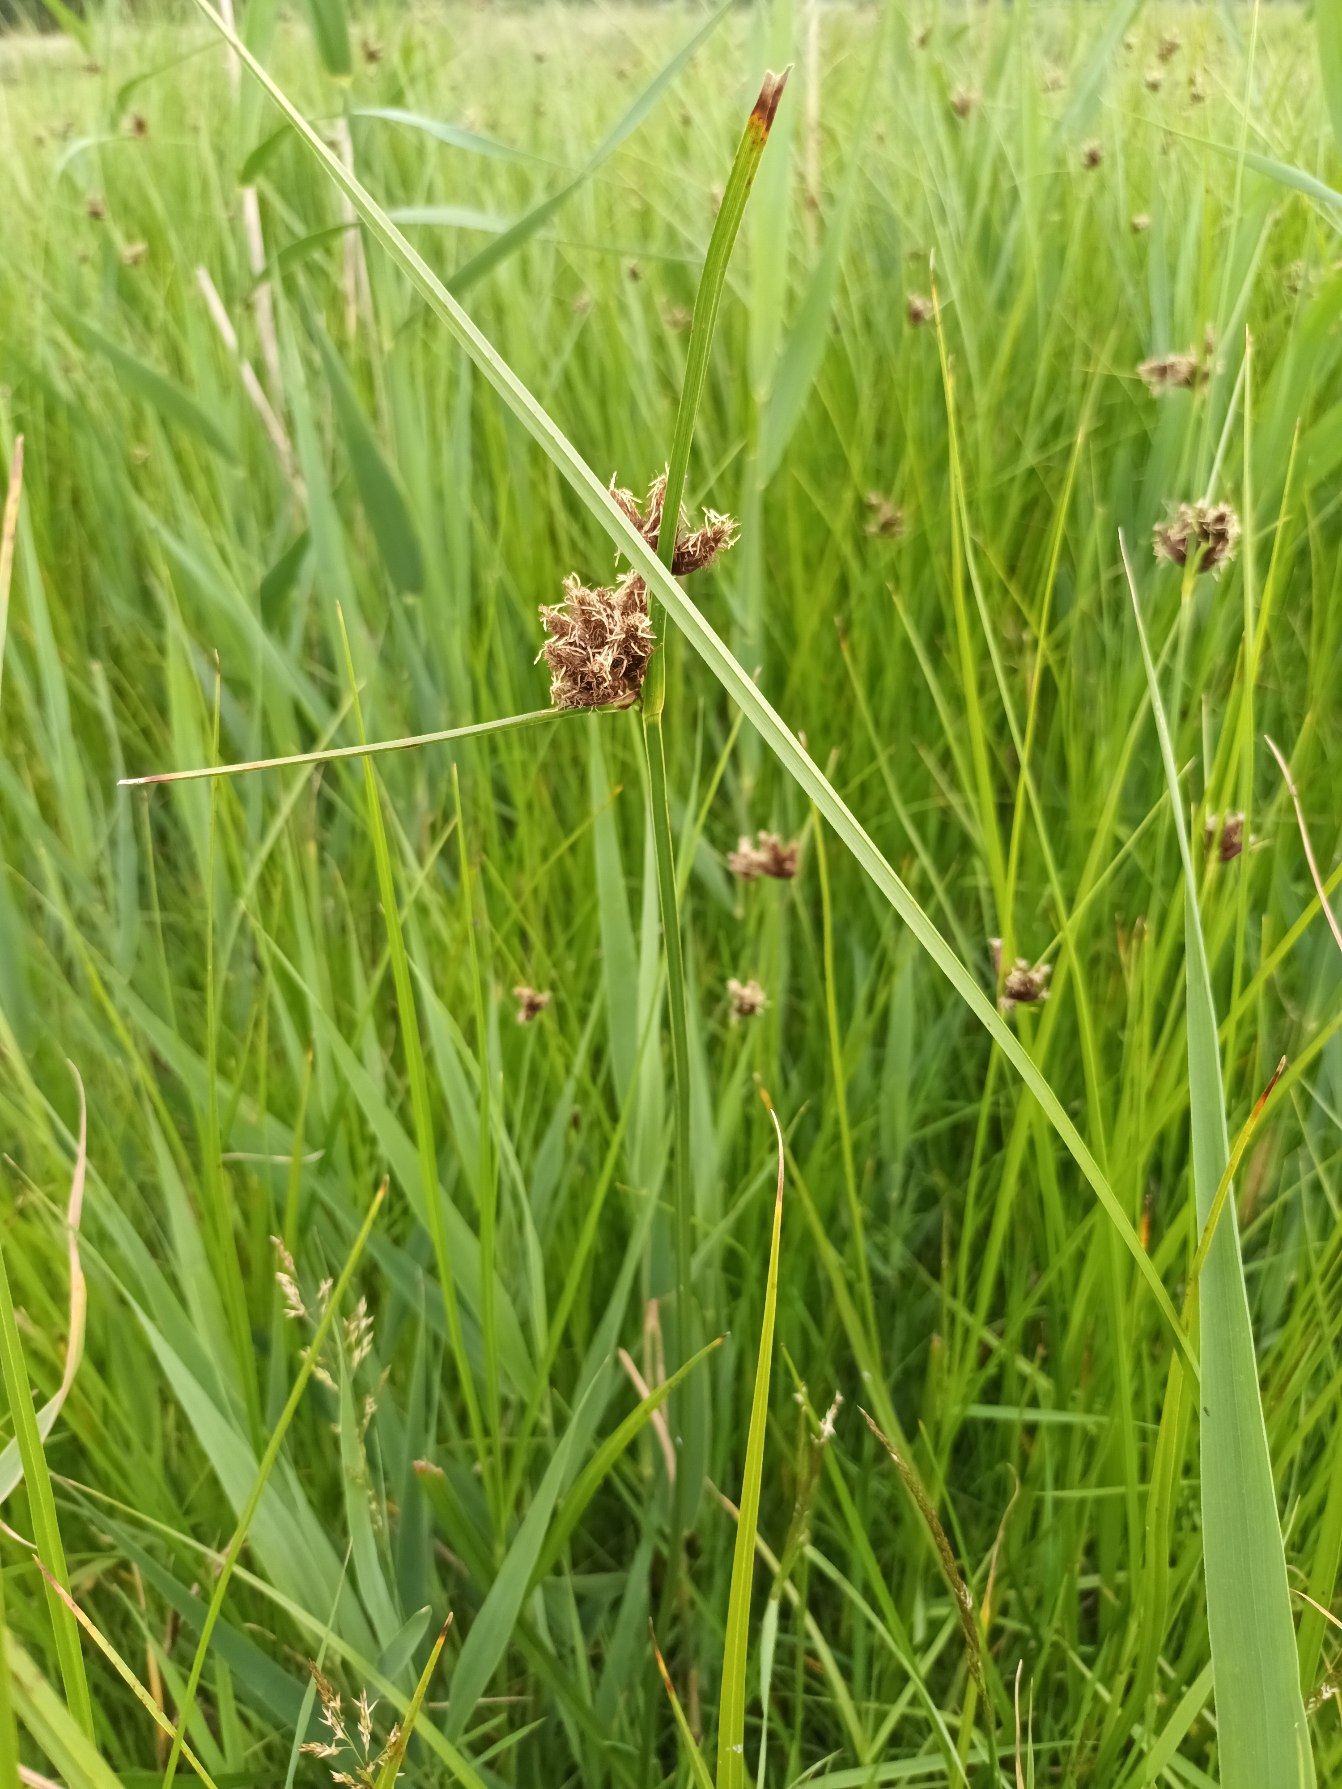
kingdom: Plantae
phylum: Tracheophyta
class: Liliopsida
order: Poales
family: Cyperaceae
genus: Bolboschoenus
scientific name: Bolboschoenus maritimus
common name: Strand-kogleaks
